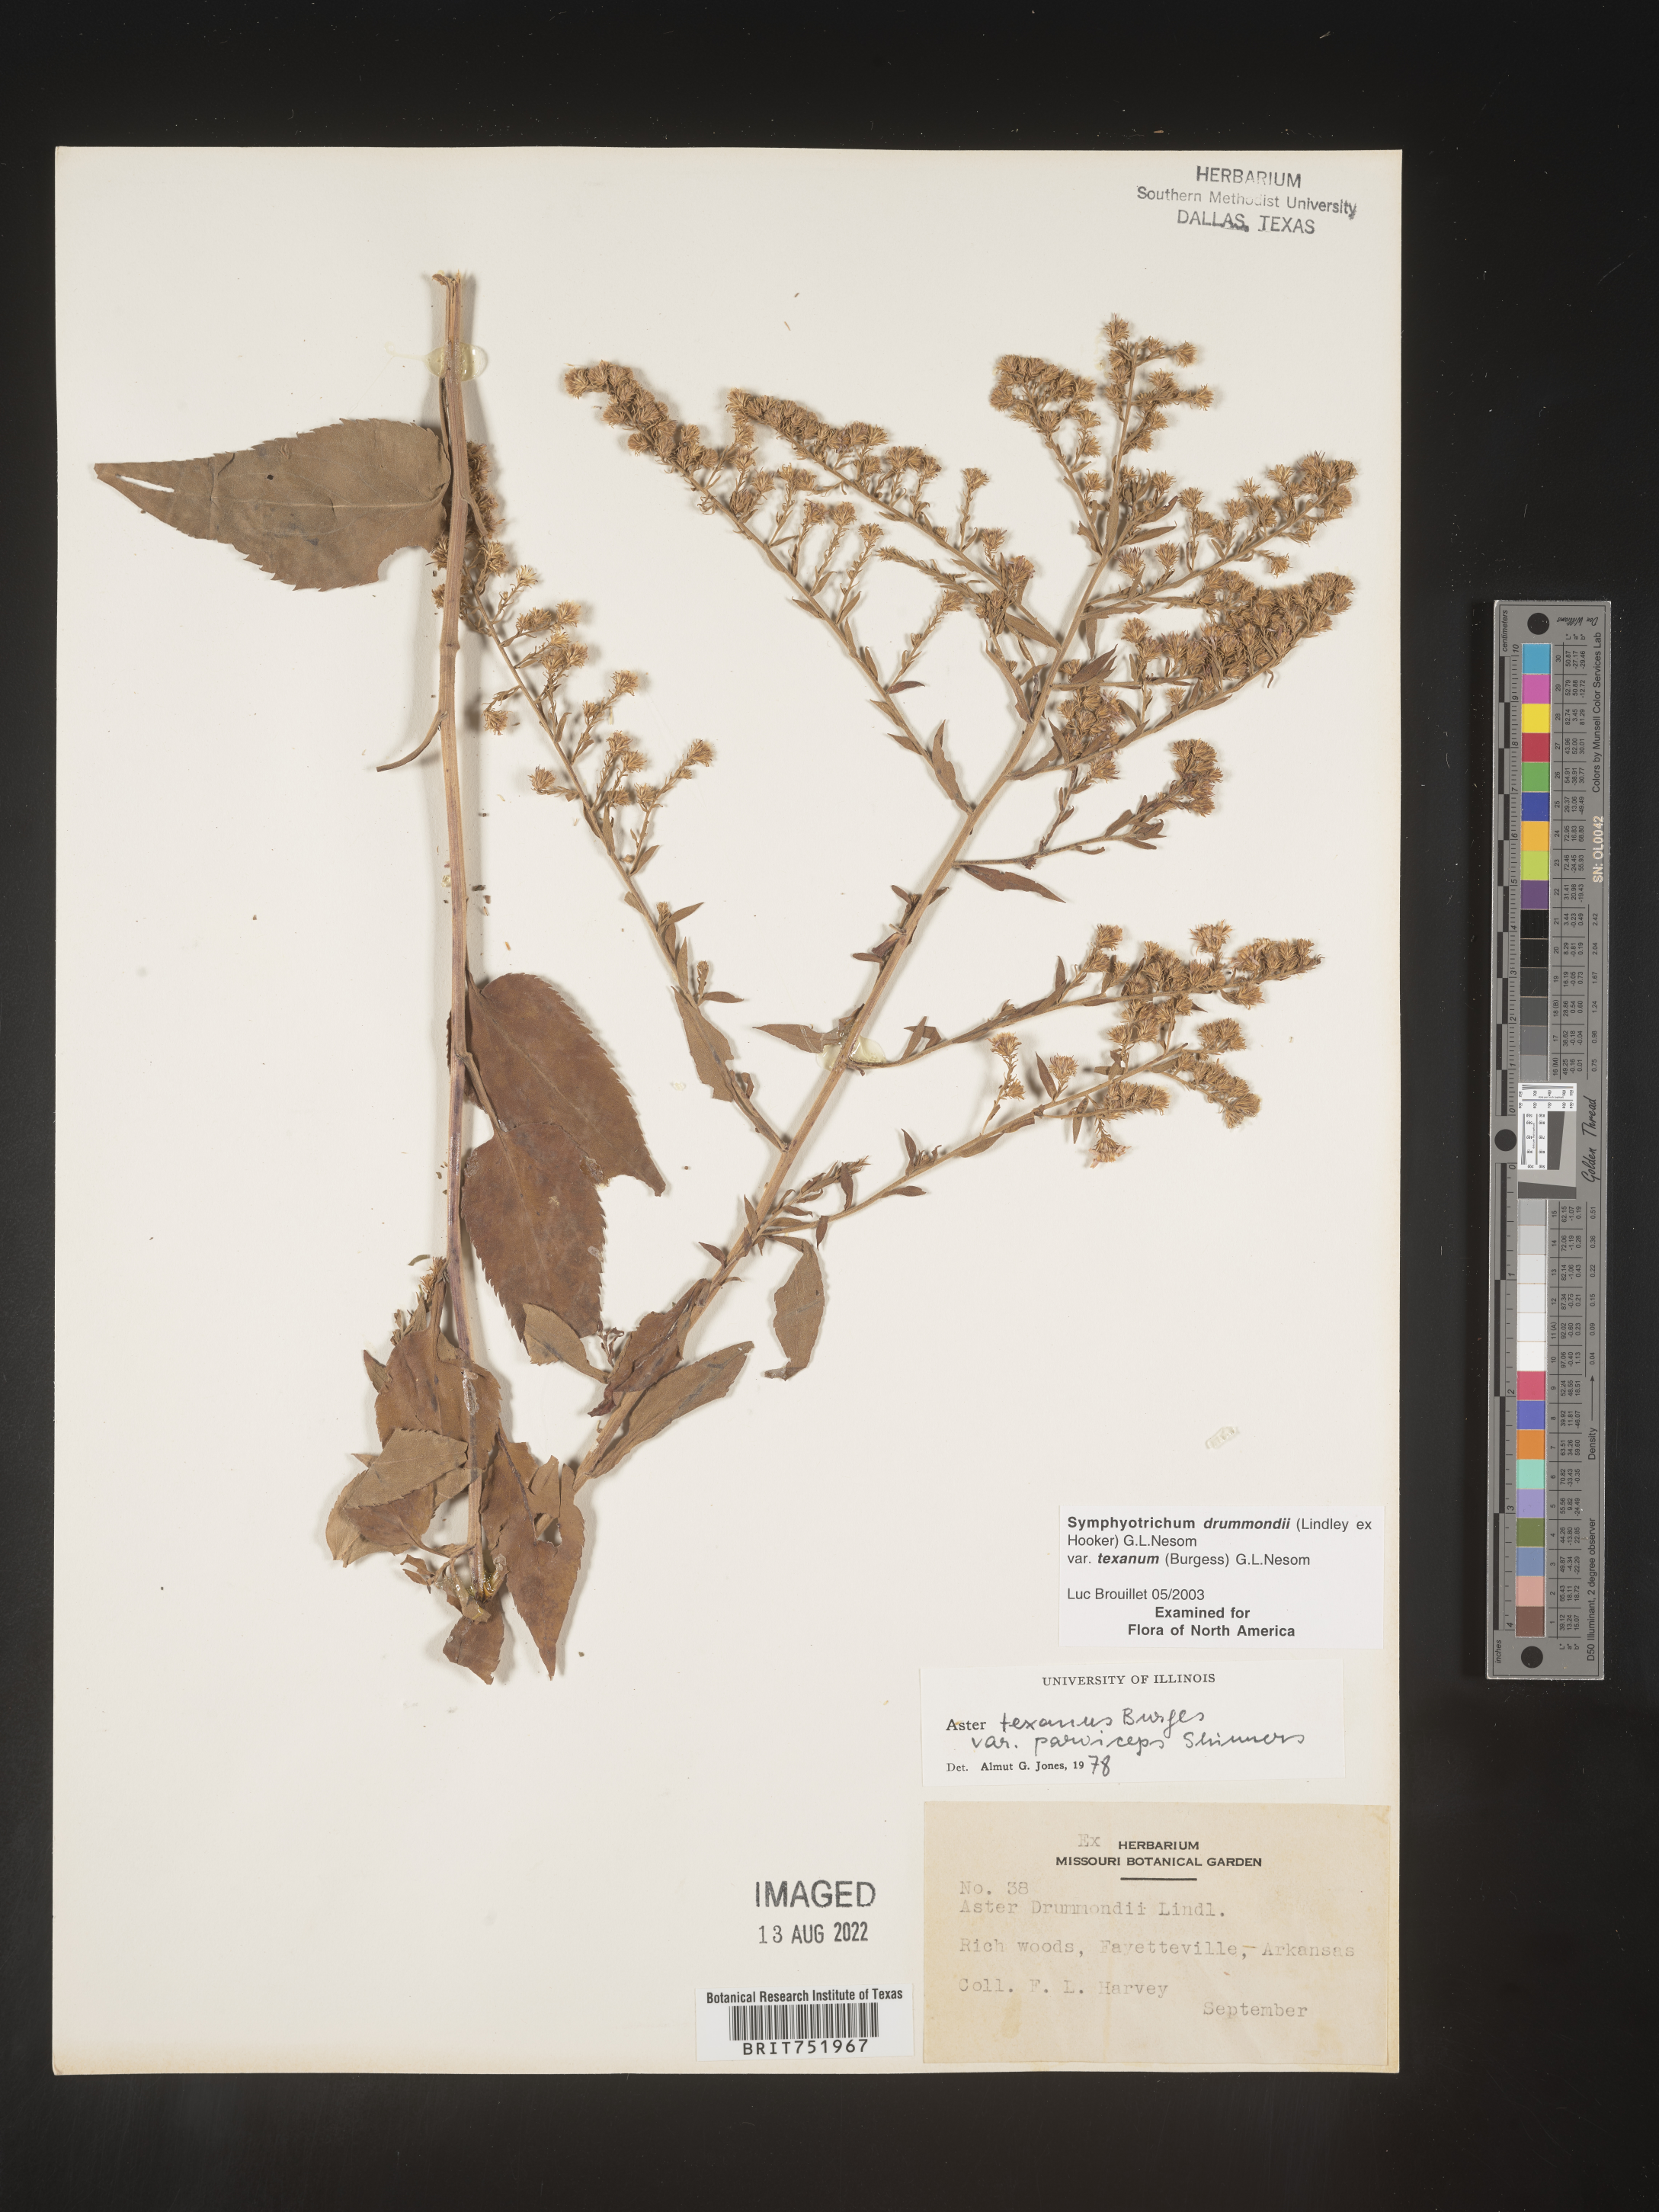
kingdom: Plantae
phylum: Tracheophyta
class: Magnoliopsida
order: Asterales
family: Asteraceae
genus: Symphyotrichum
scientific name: Symphyotrichum drummondii
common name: Drummond's aster
